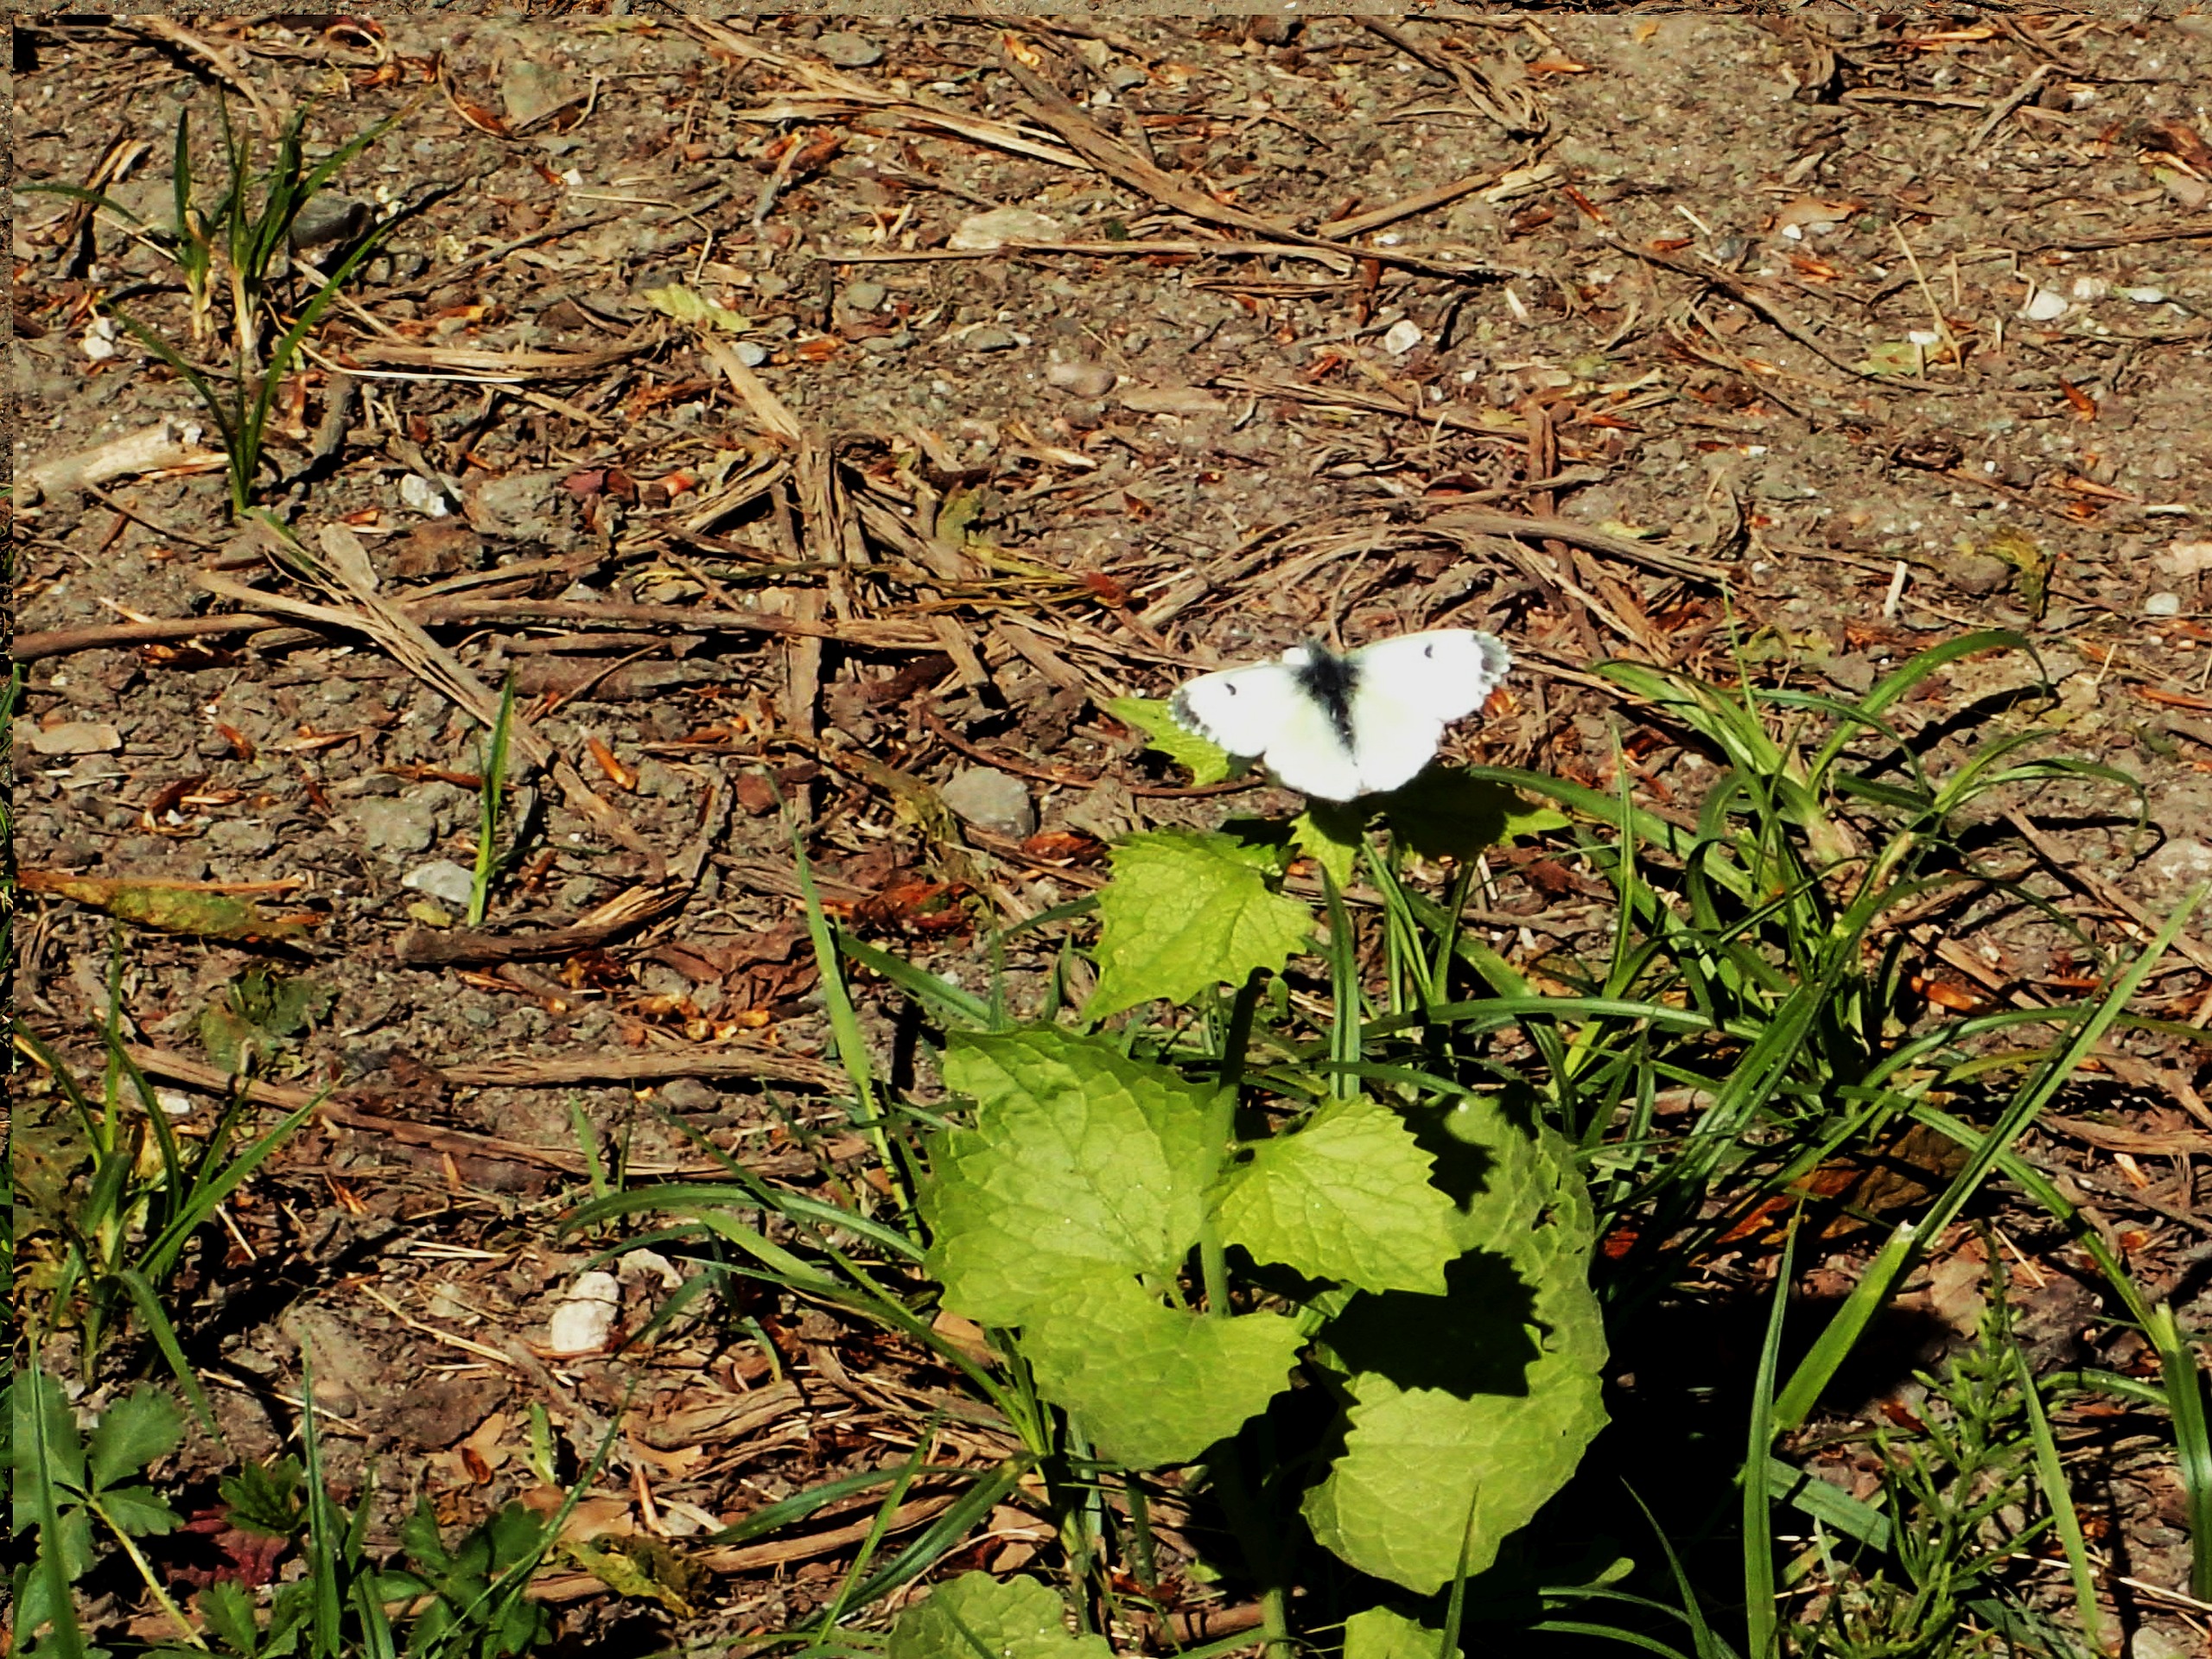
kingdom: Animalia
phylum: Arthropoda
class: Insecta
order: Lepidoptera
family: Pieridae
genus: Anthocharis
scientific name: Anthocharis cardamines
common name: Aurora
